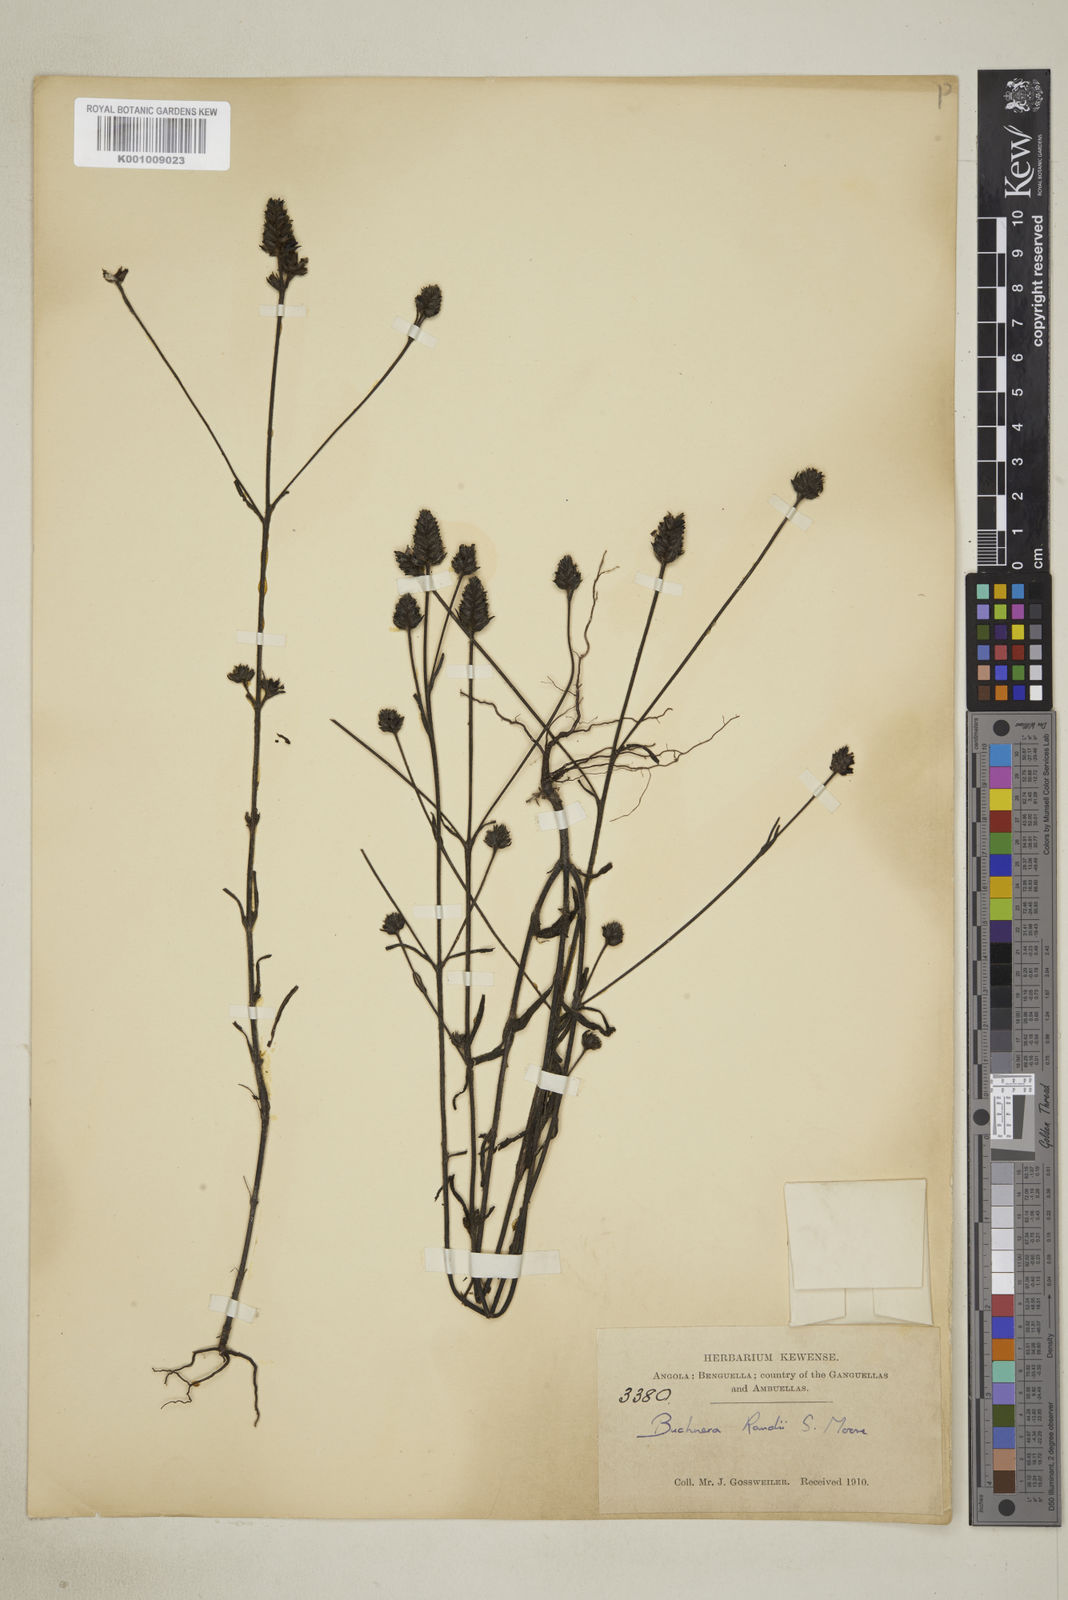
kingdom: Plantae
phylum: Tracheophyta
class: Magnoliopsida
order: Lamiales
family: Orobanchaceae
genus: Buchnera
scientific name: Buchnera randii
